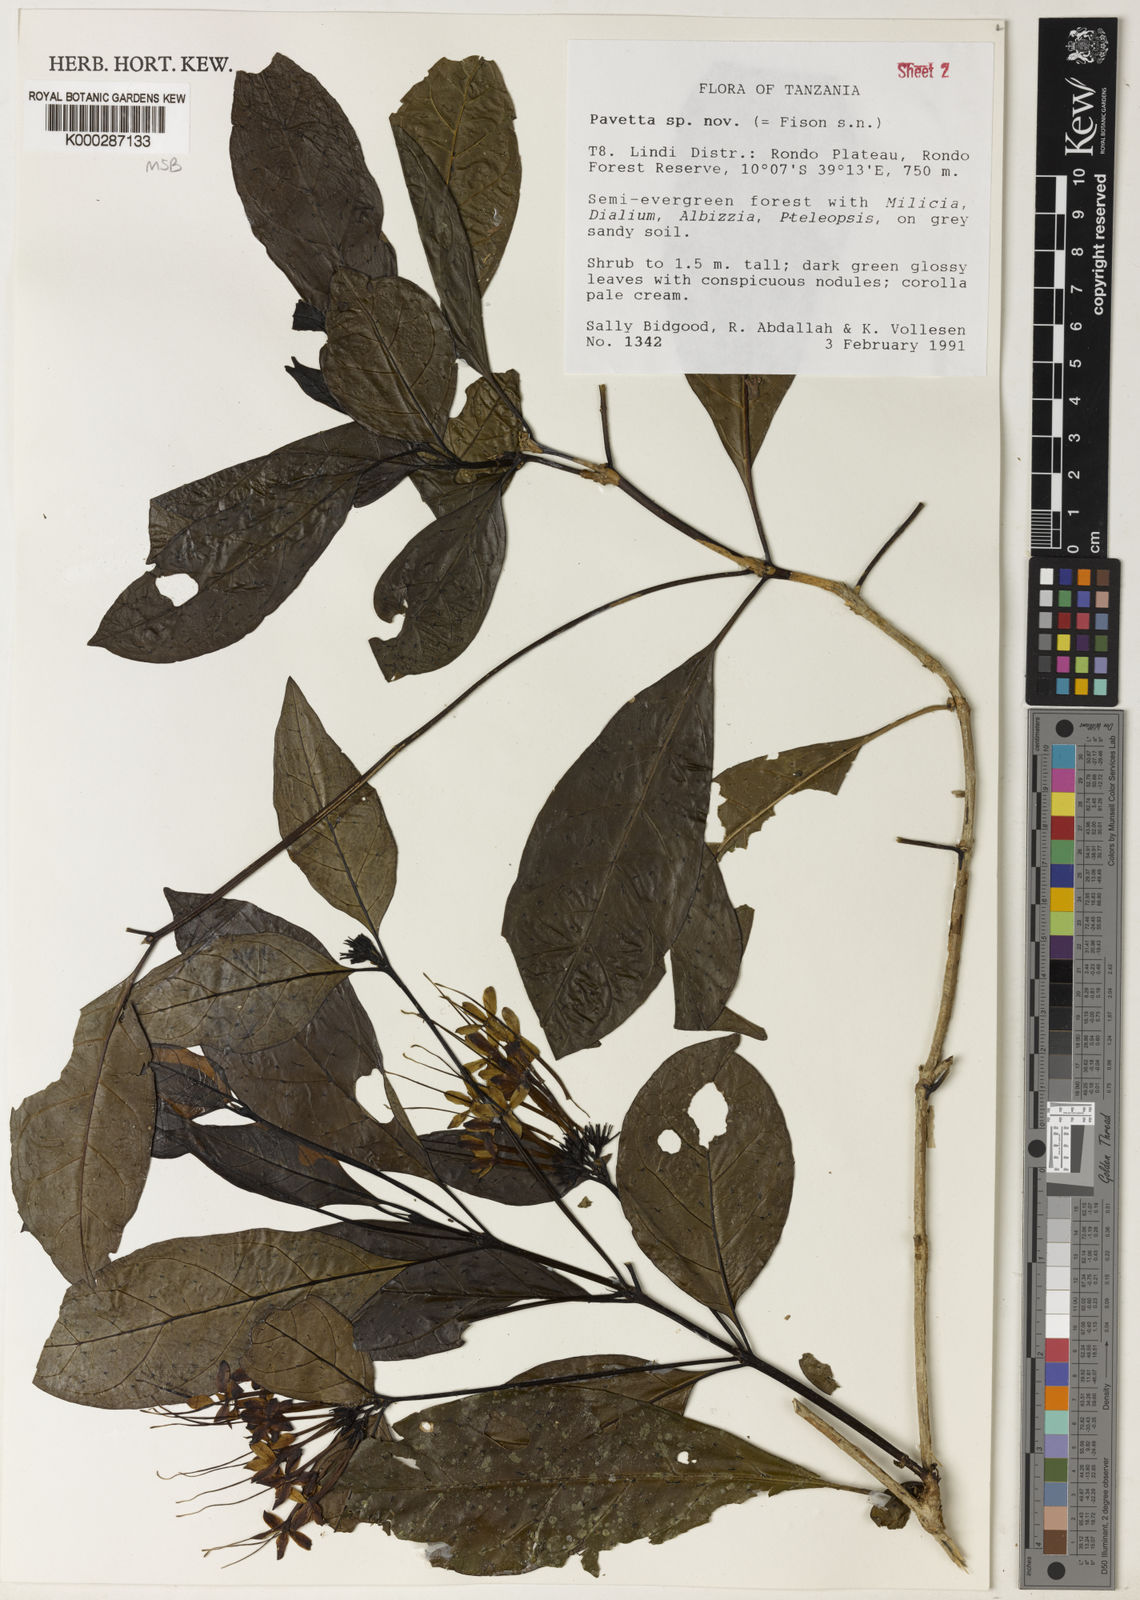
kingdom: Plantae
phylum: Tracheophyta
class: Magnoliopsida
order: Gentianales
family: Rubiaceae
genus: Pavetta
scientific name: Pavetta diversipunctata
